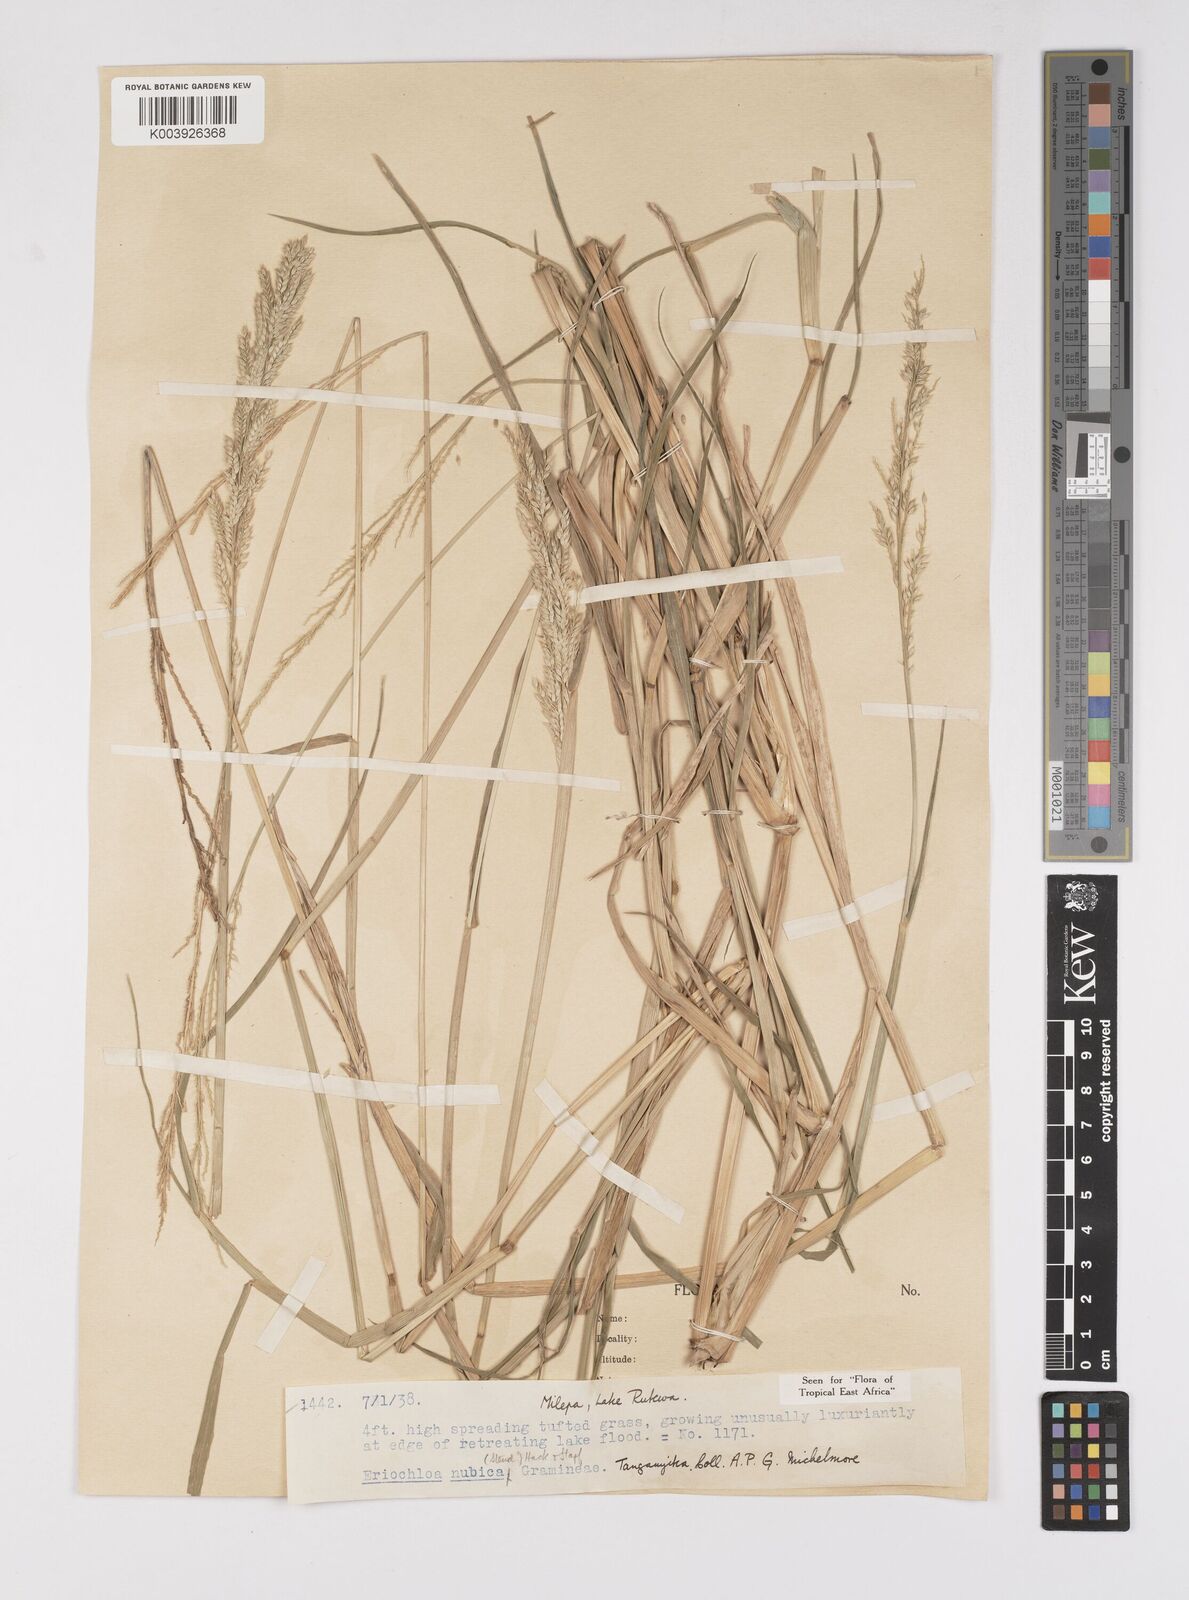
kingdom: Plantae
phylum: Tracheophyta
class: Liliopsida
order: Poales
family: Poaceae
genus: Eriochloa
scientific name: Eriochloa barbatus
